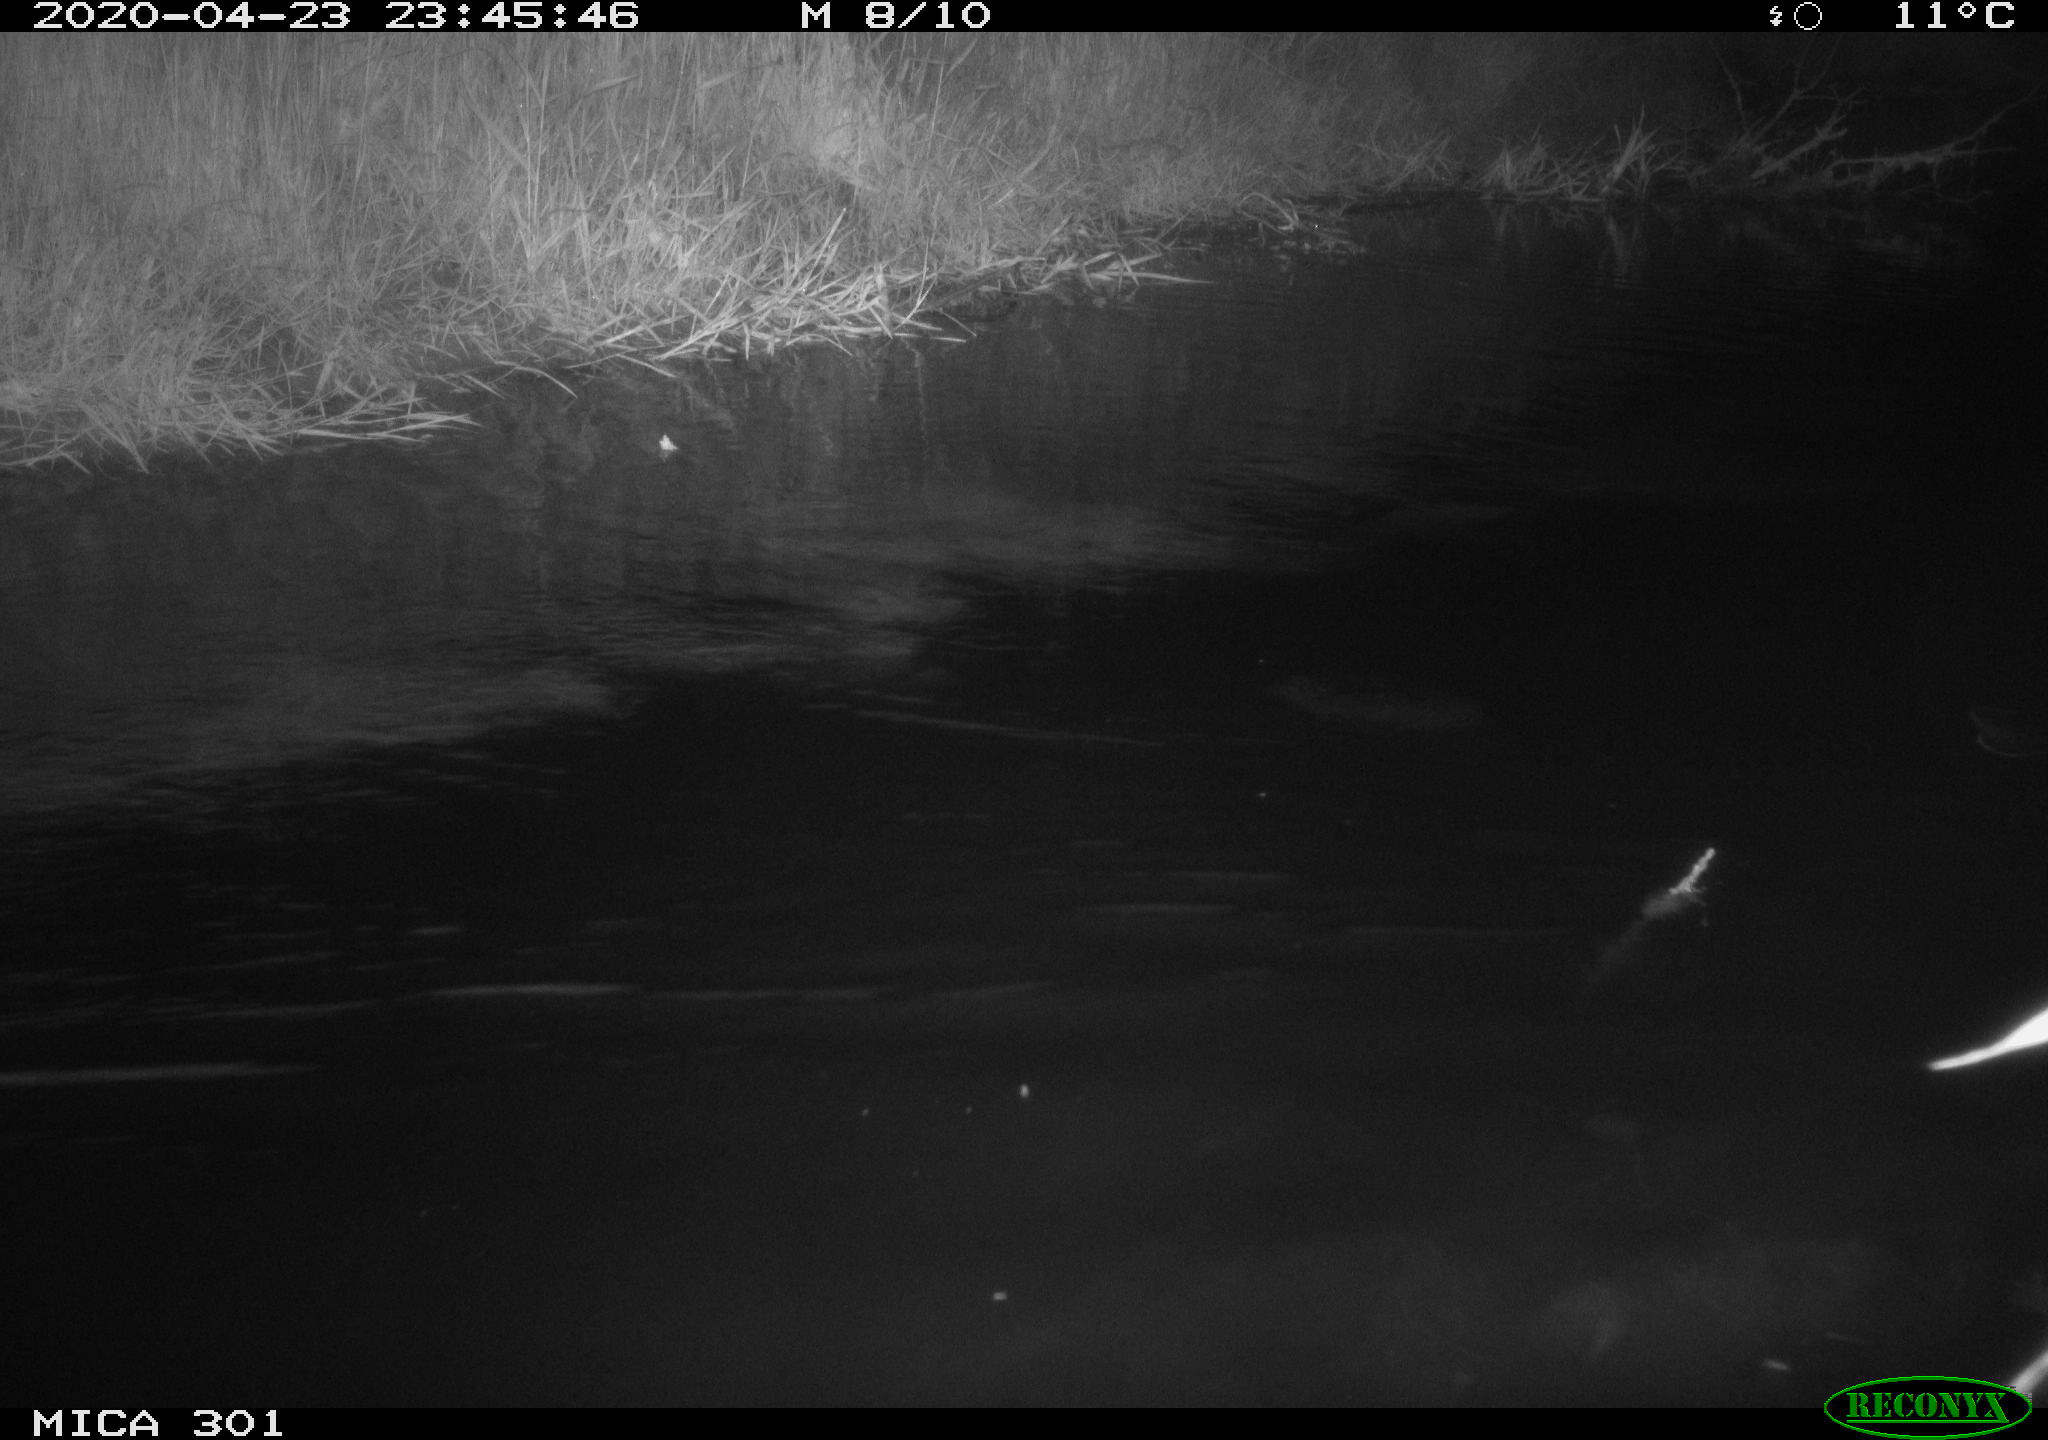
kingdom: Animalia
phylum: Chordata
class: Mammalia
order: Rodentia
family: Castoridae
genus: Castor
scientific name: Castor fiber
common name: Eurasian beaver
